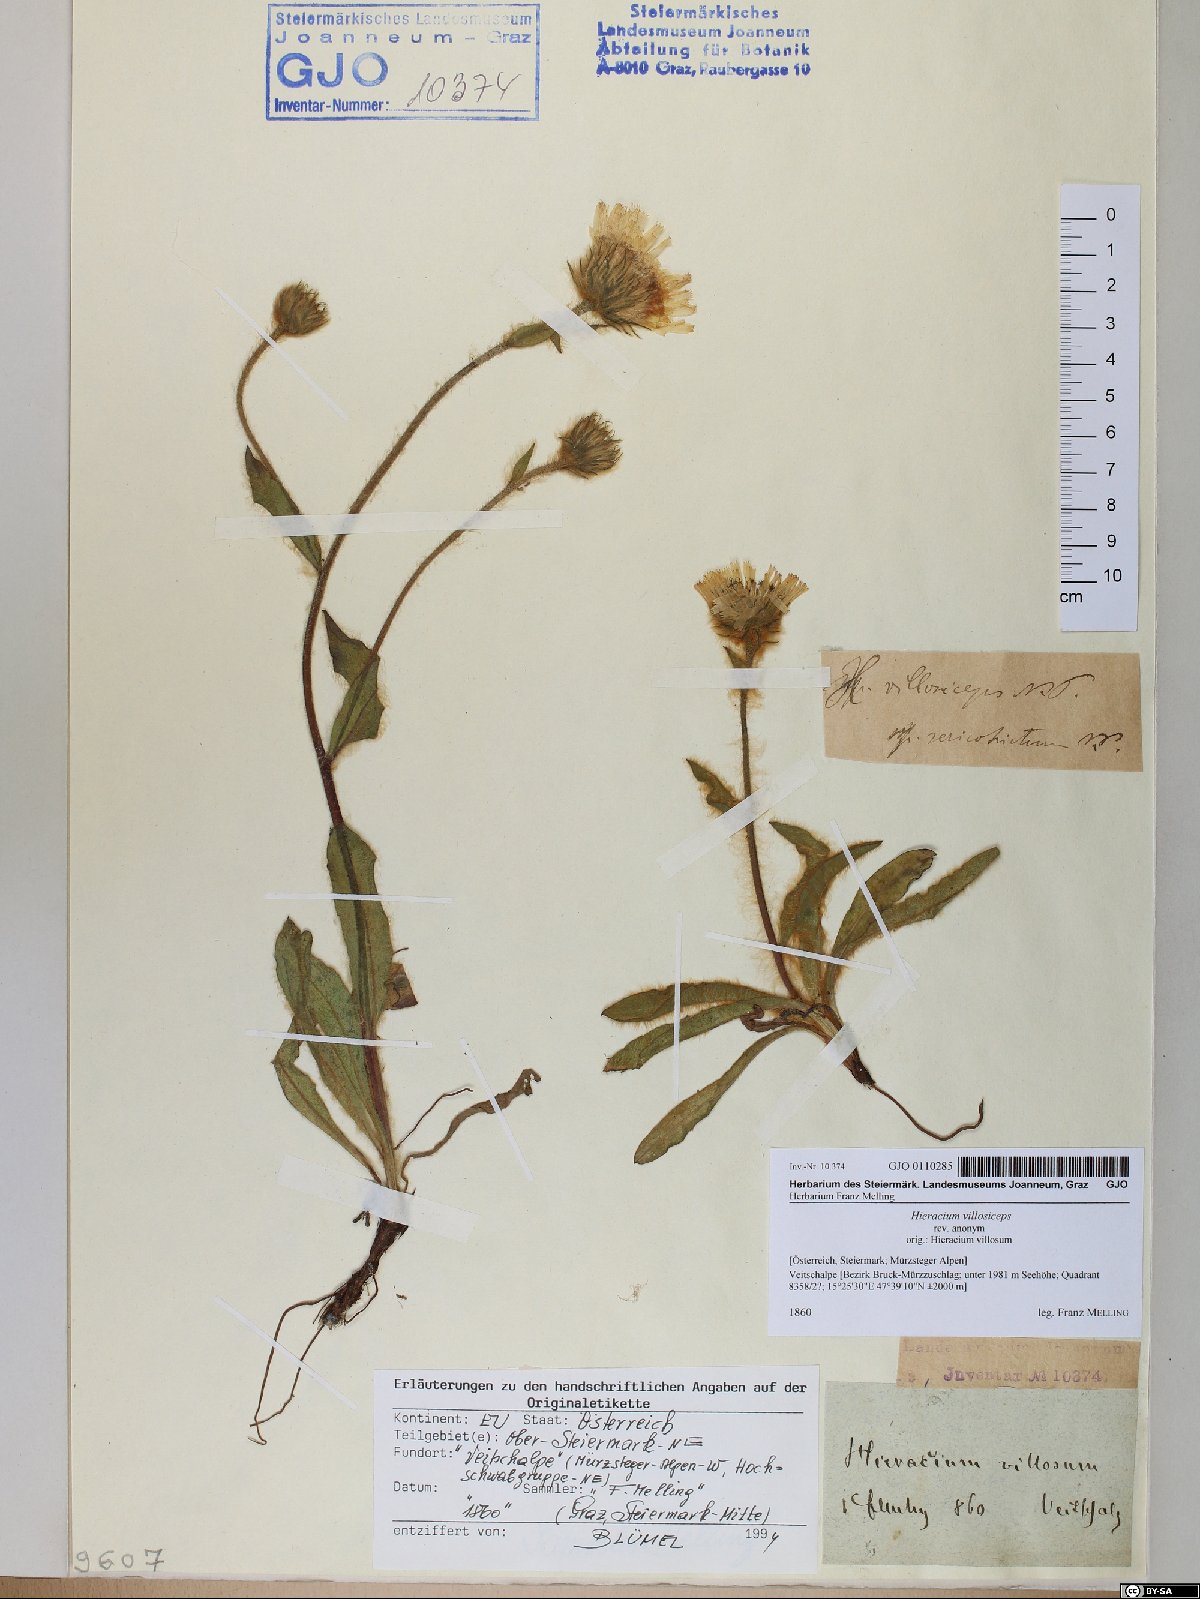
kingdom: Plantae
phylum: Tracheophyta
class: Magnoliopsida
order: Asterales
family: Asteraceae
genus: Hieracium
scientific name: Hieracium pilosum
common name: Fimbriate-pitted hawkweed
